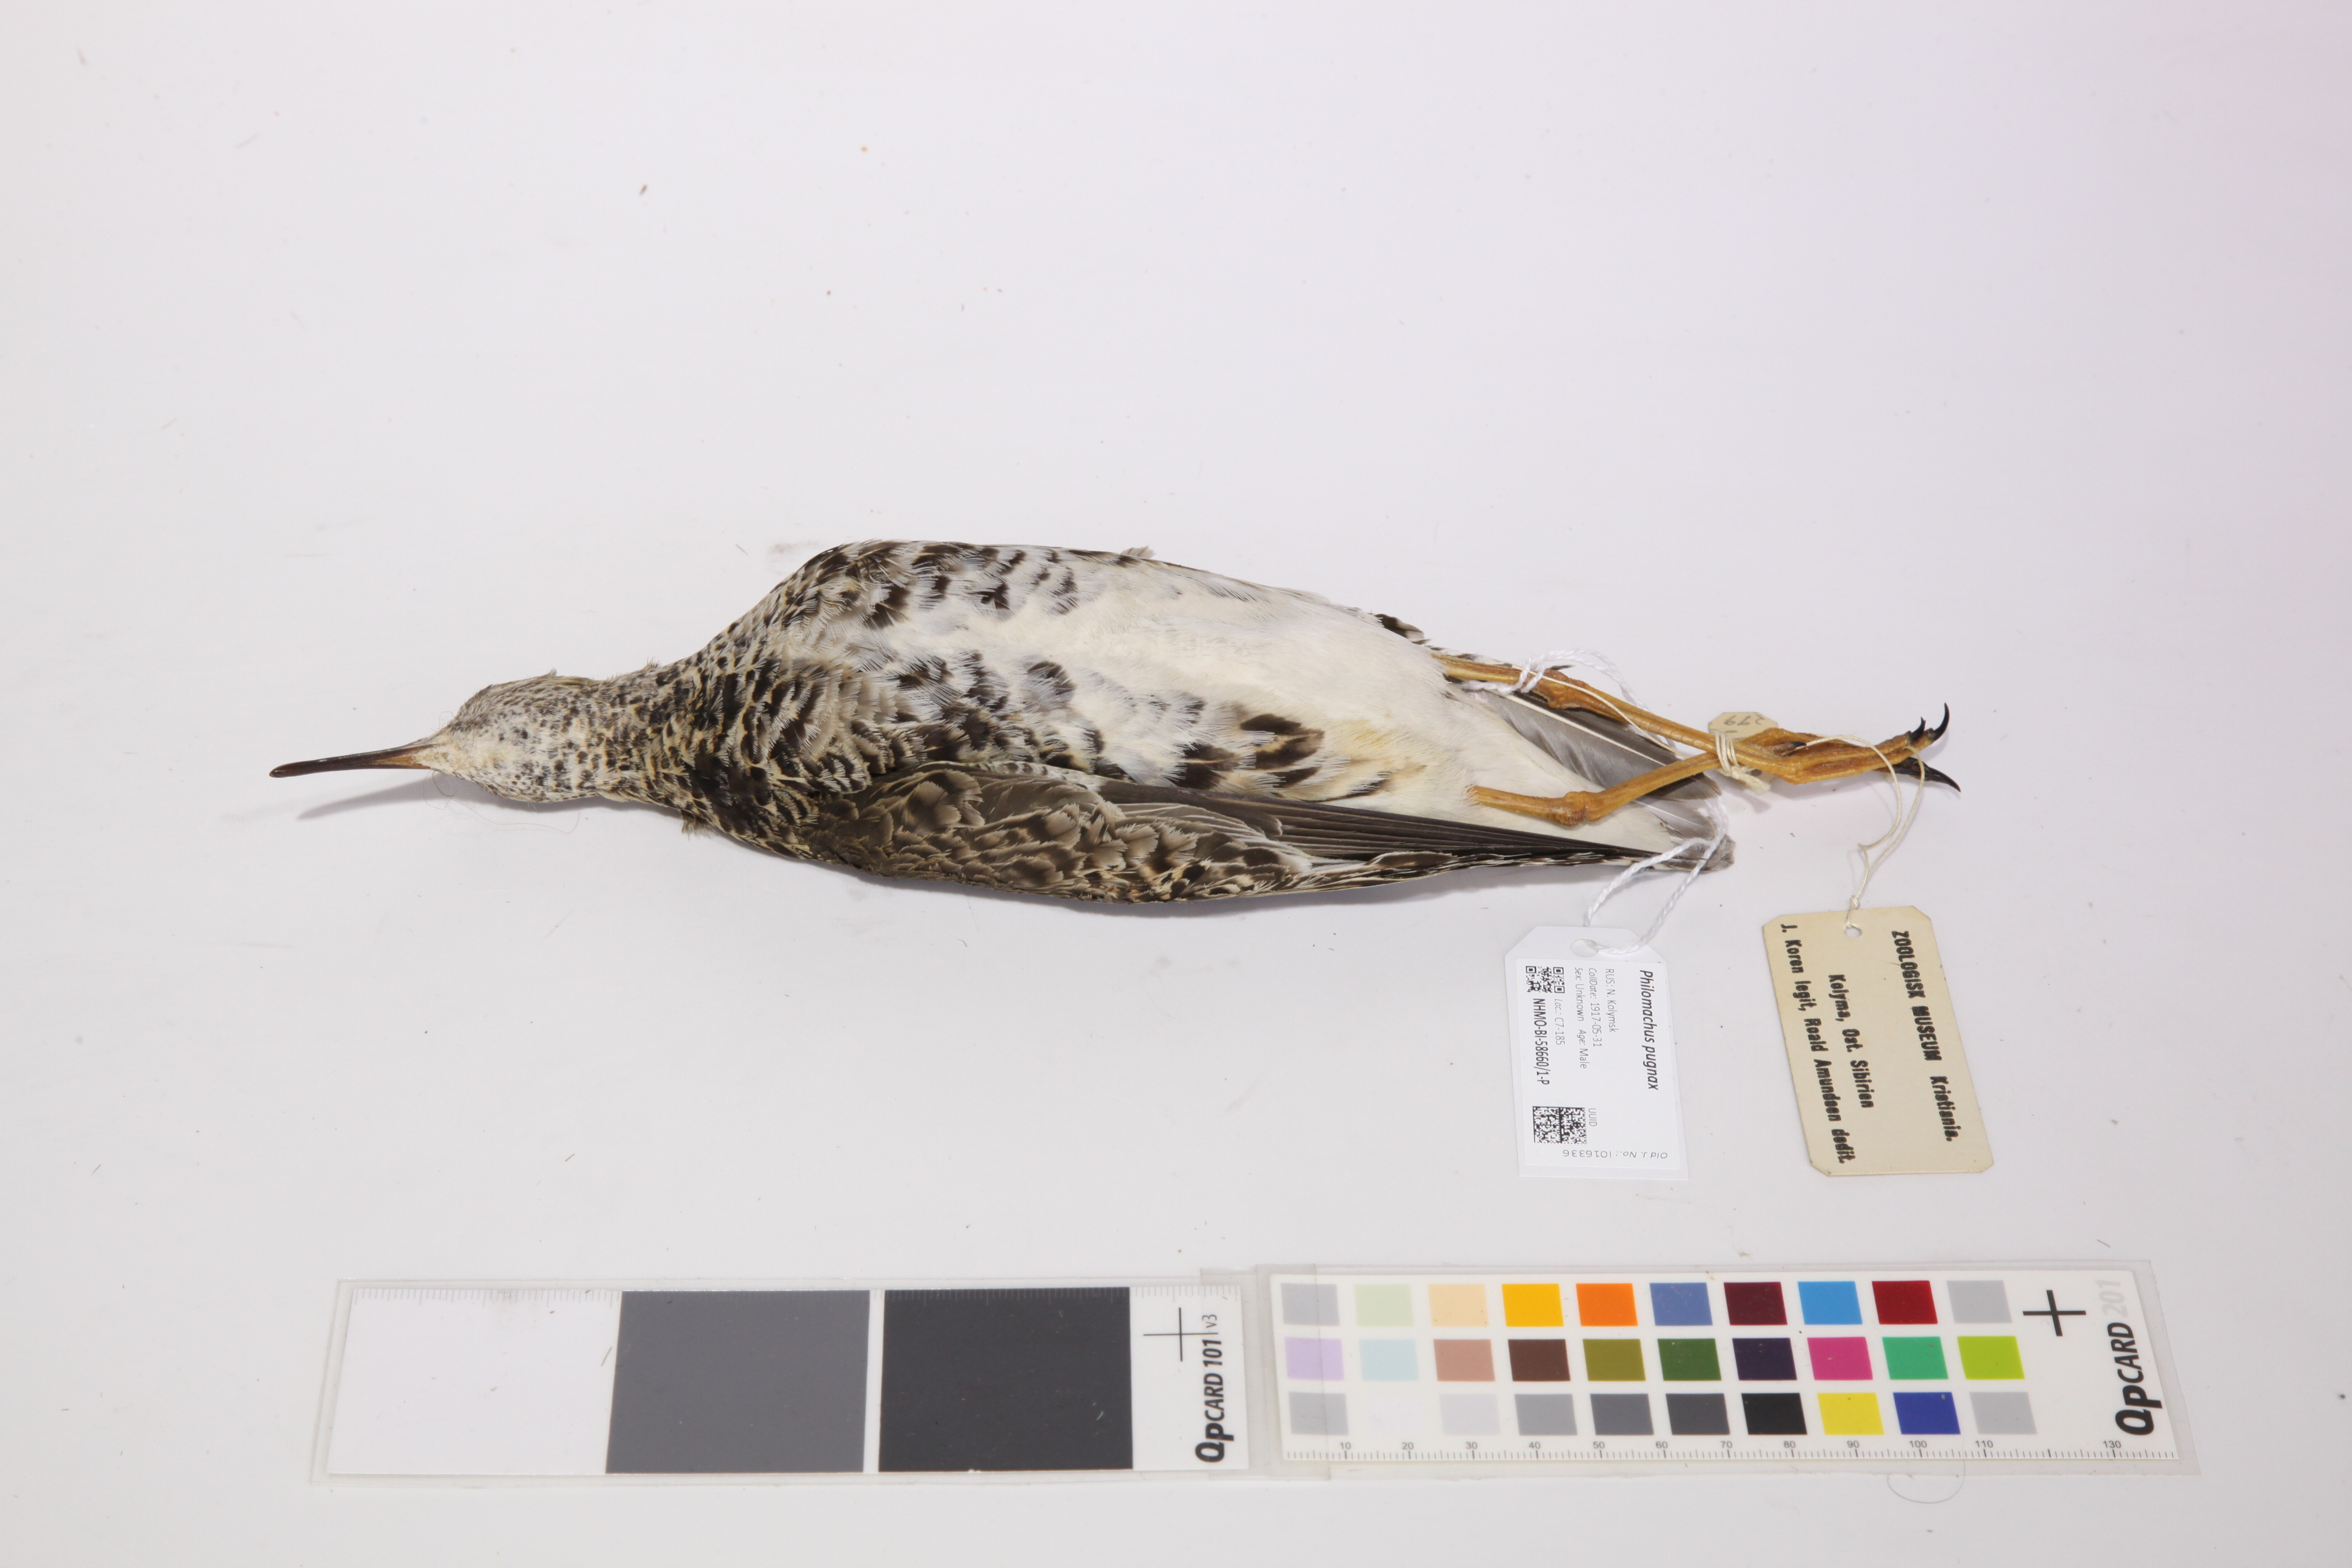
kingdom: Animalia
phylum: Chordata
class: Aves
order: Charadriiformes
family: Scolopacidae
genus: Calidris
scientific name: Calidris pugnax
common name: Ruff
